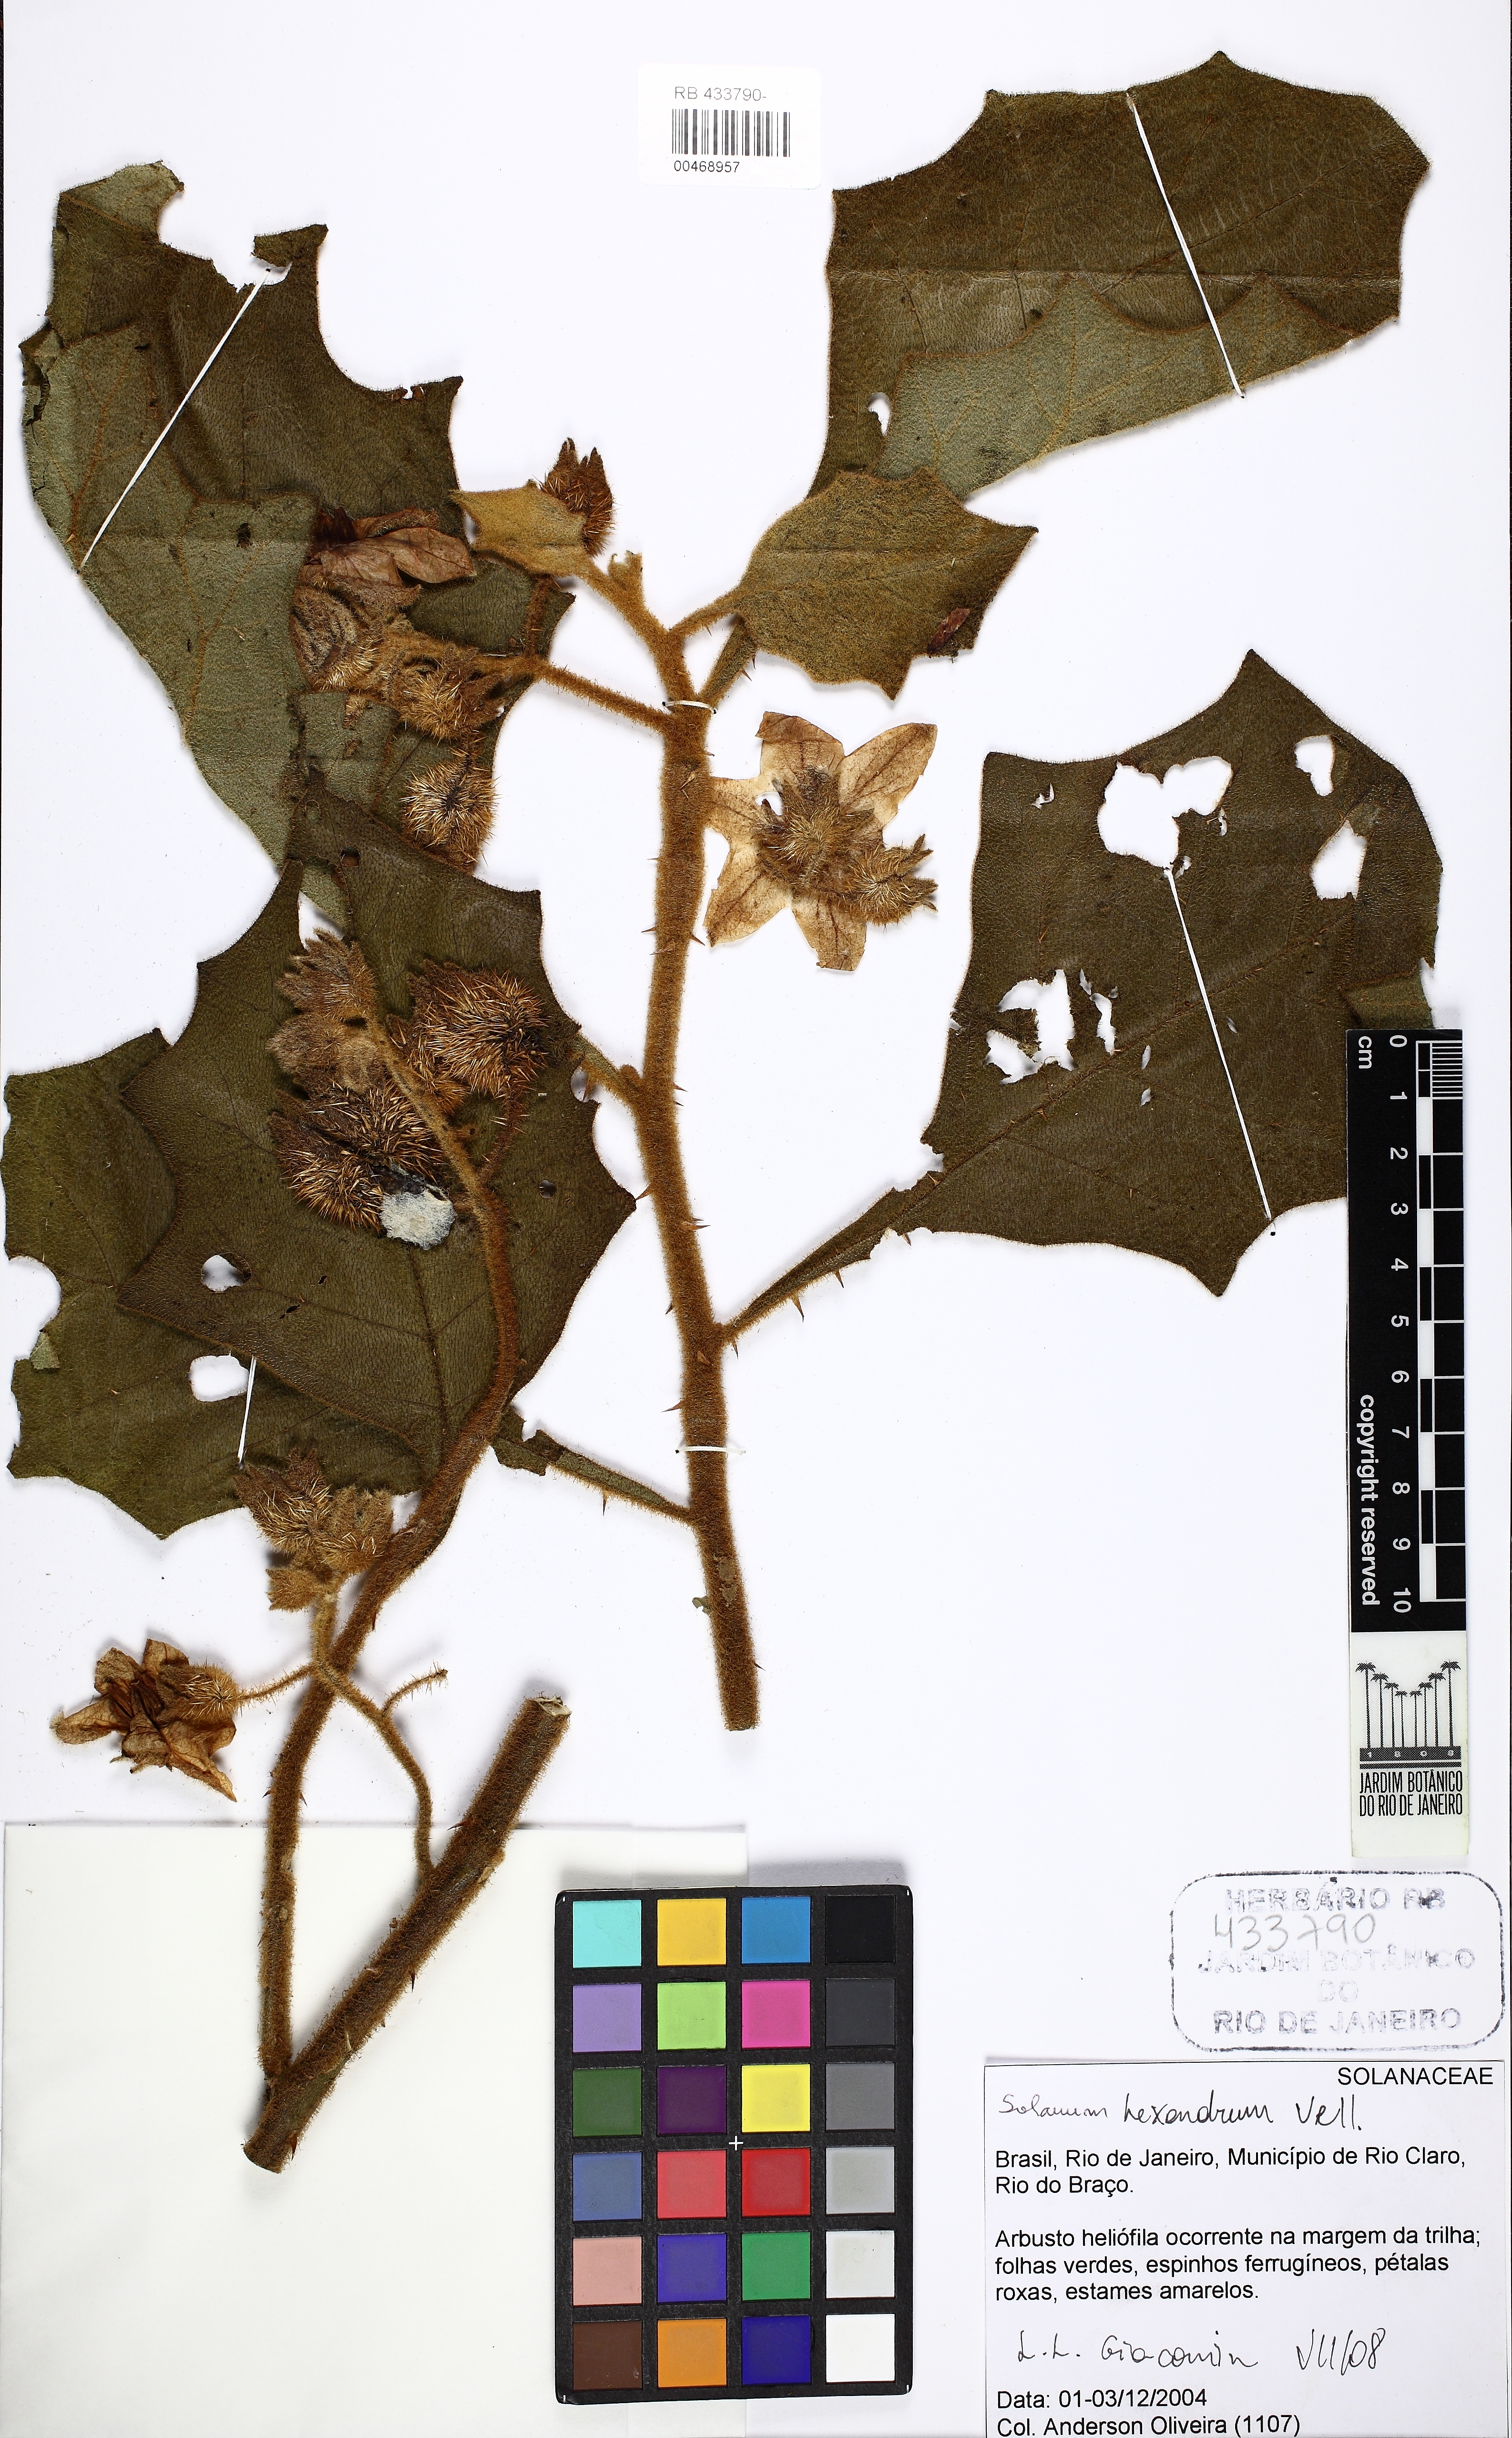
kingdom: Plantae
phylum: Tracheophyta
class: Magnoliopsida
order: Solanales
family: Solanaceae
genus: Solanum
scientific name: Solanum hexandrum
